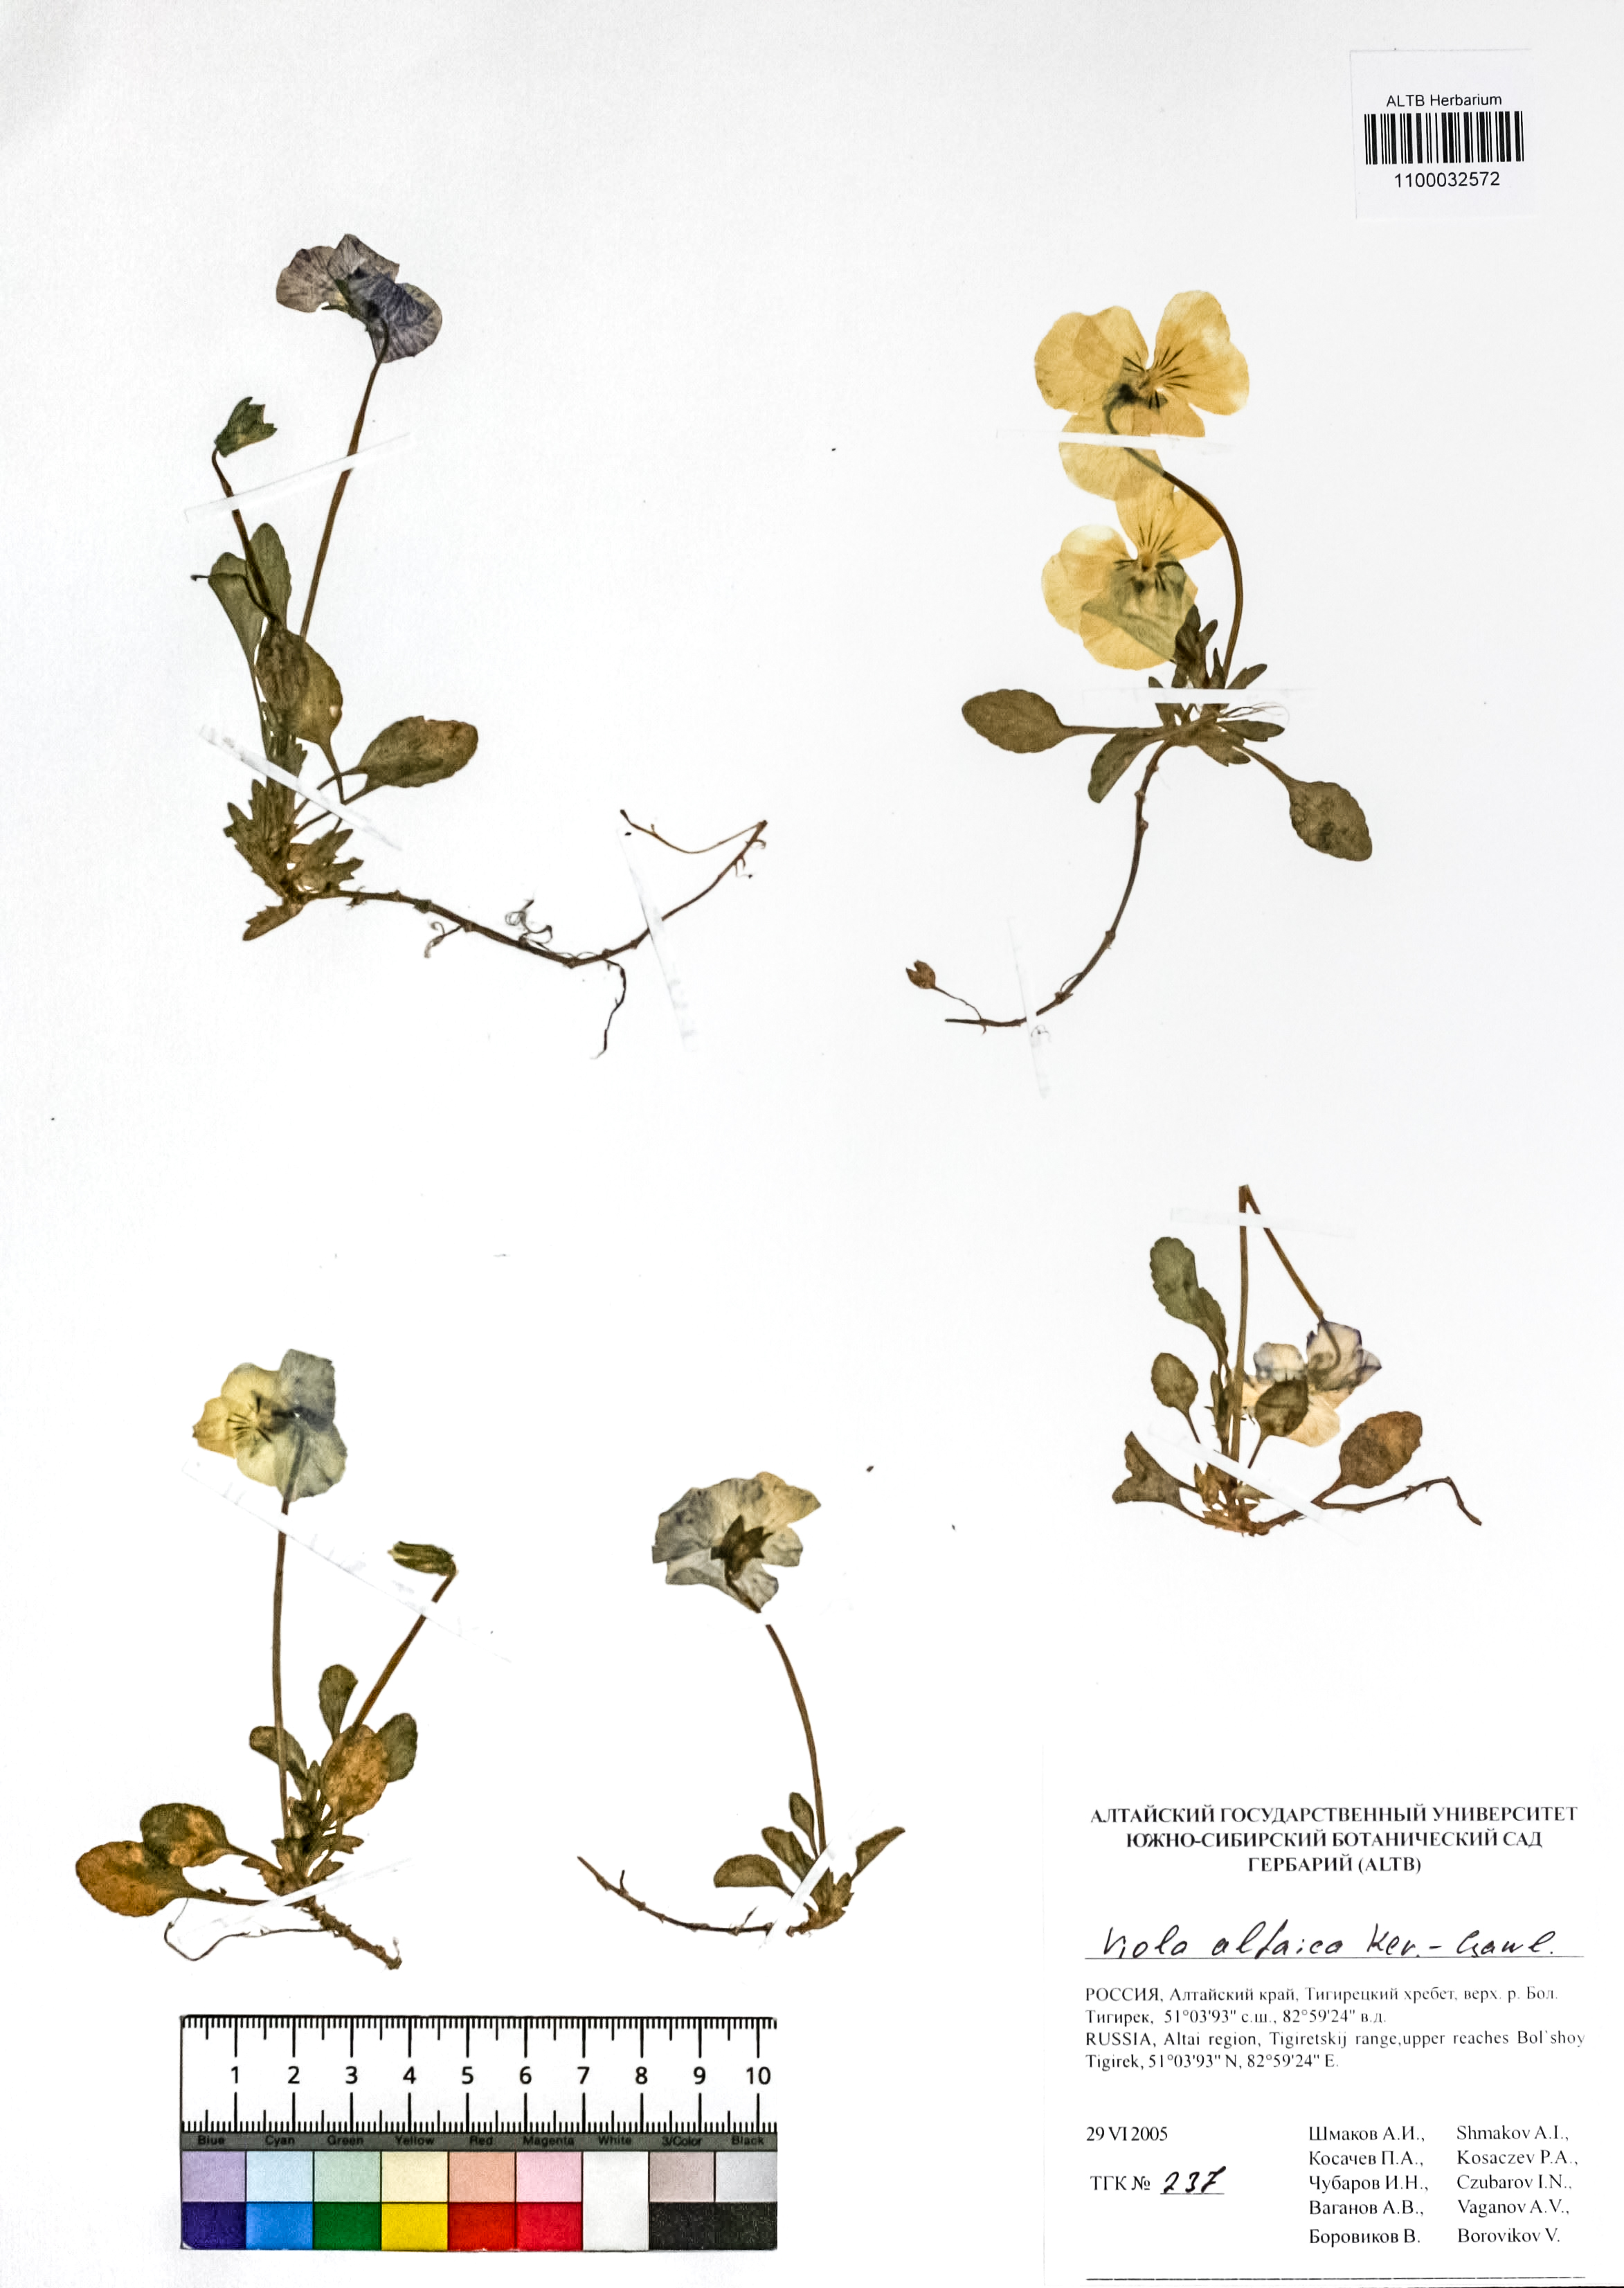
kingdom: Plantae
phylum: Tracheophyta
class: Magnoliopsida
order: Malpighiales
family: Violaceae
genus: Viola
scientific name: Viola altaica
